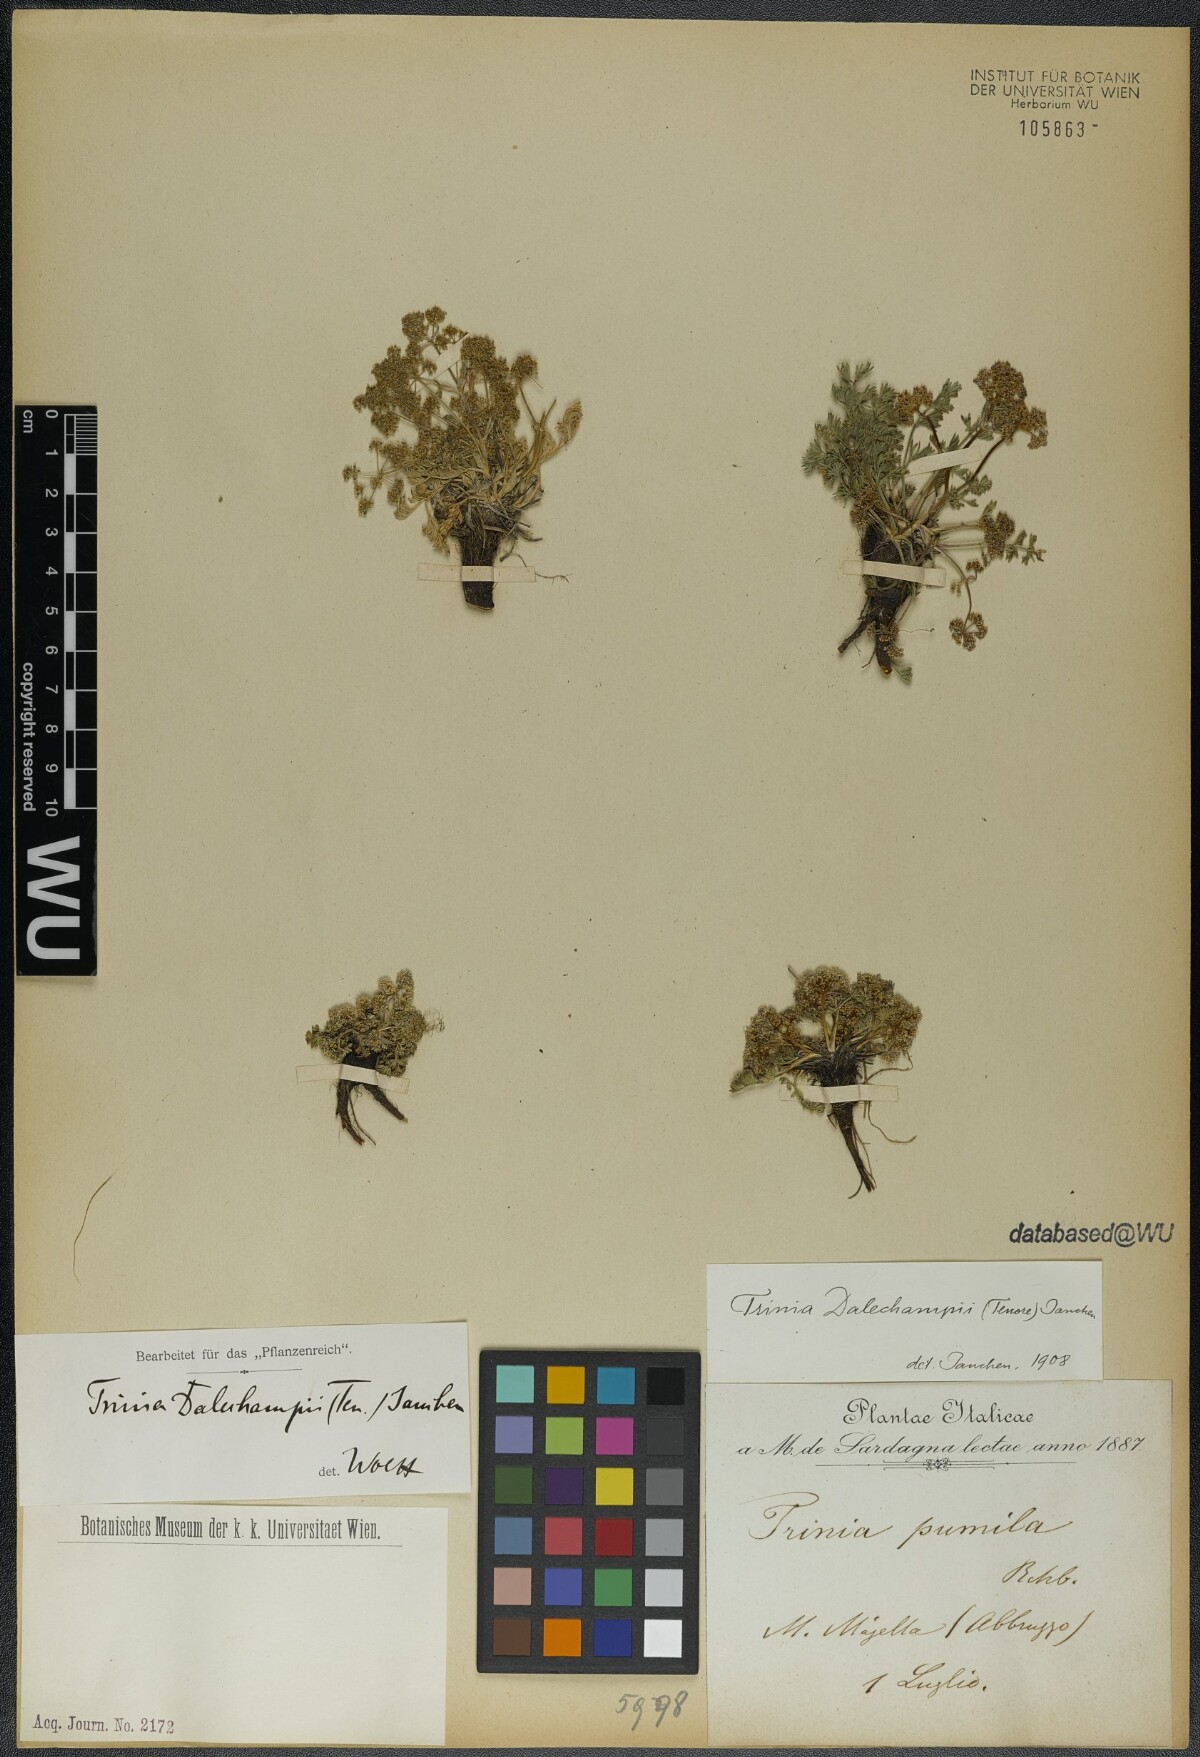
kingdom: Plantae
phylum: Tracheophyta
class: Magnoliopsida
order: Apiales
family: Apiaceae
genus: Trinia
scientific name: Trinia dalechampii
